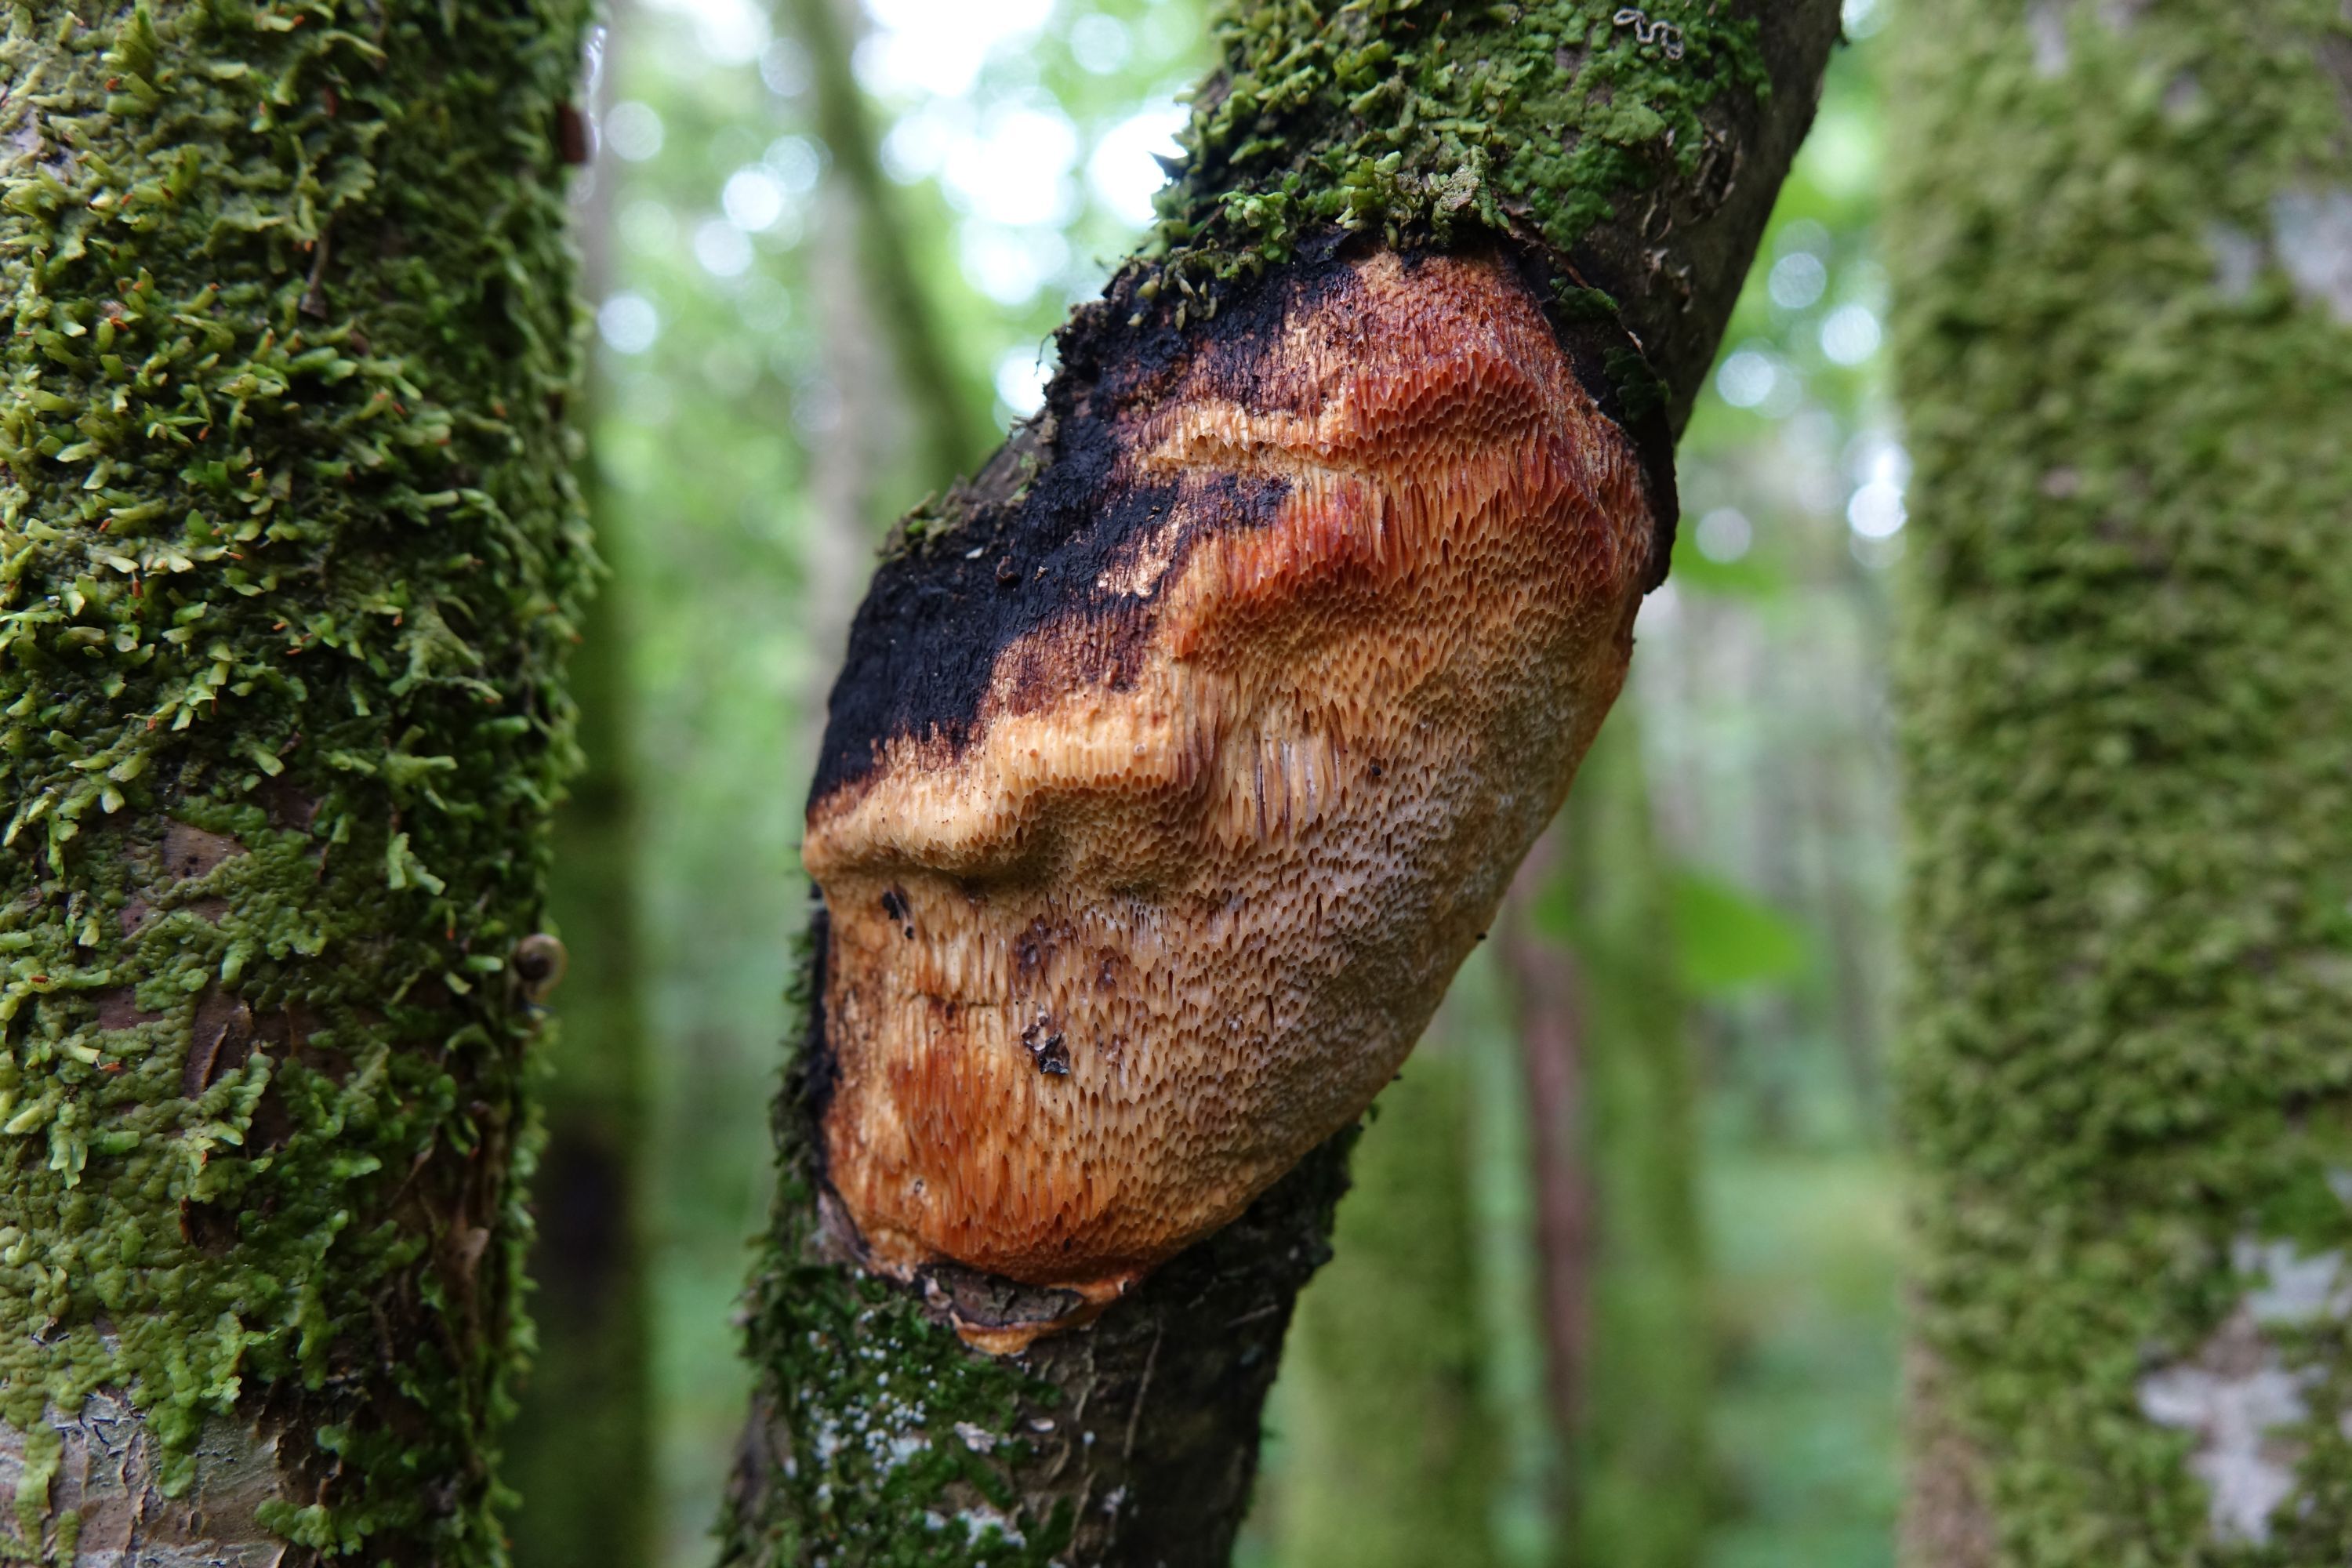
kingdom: Fungi
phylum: Basidiomycota
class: Agaricomycetes
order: Polyporales
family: Polyporaceae
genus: Szczepkamyces
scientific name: Szczepkamyces campestris
